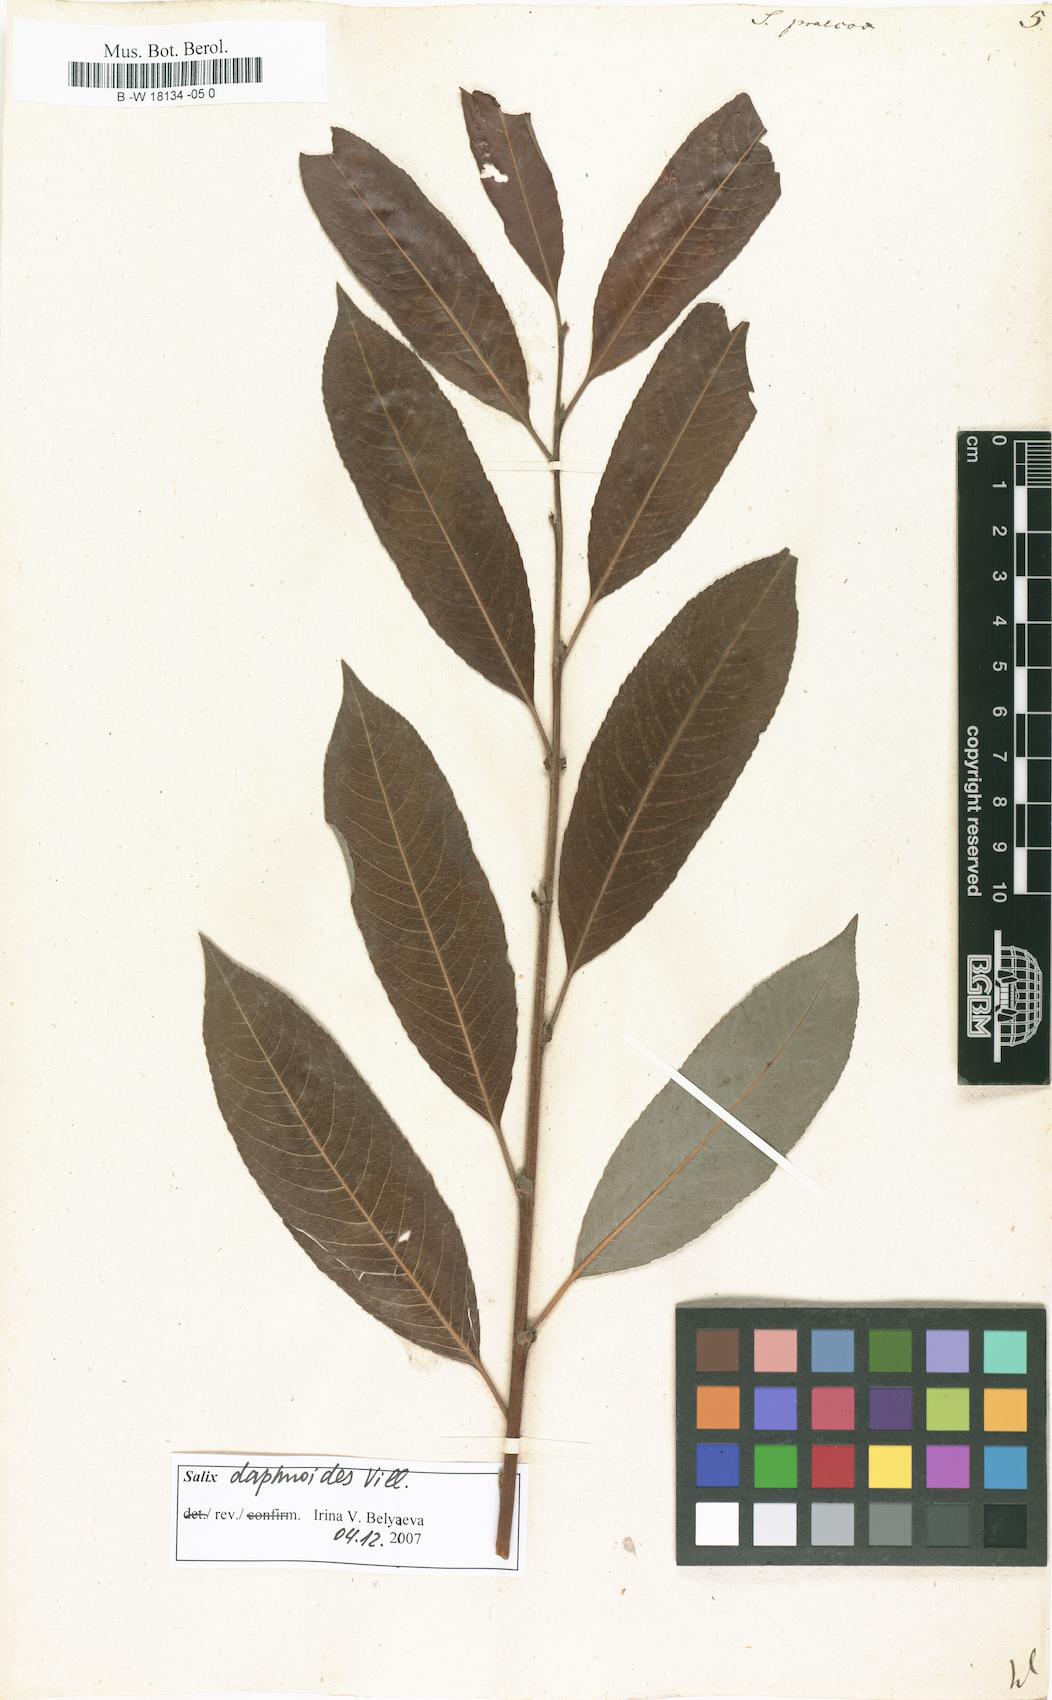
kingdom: Plantae
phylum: Tracheophyta
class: Magnoliopsida
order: Malpighiales
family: Salicaceae
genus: Salix
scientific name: Salix caprea
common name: Goat willow
